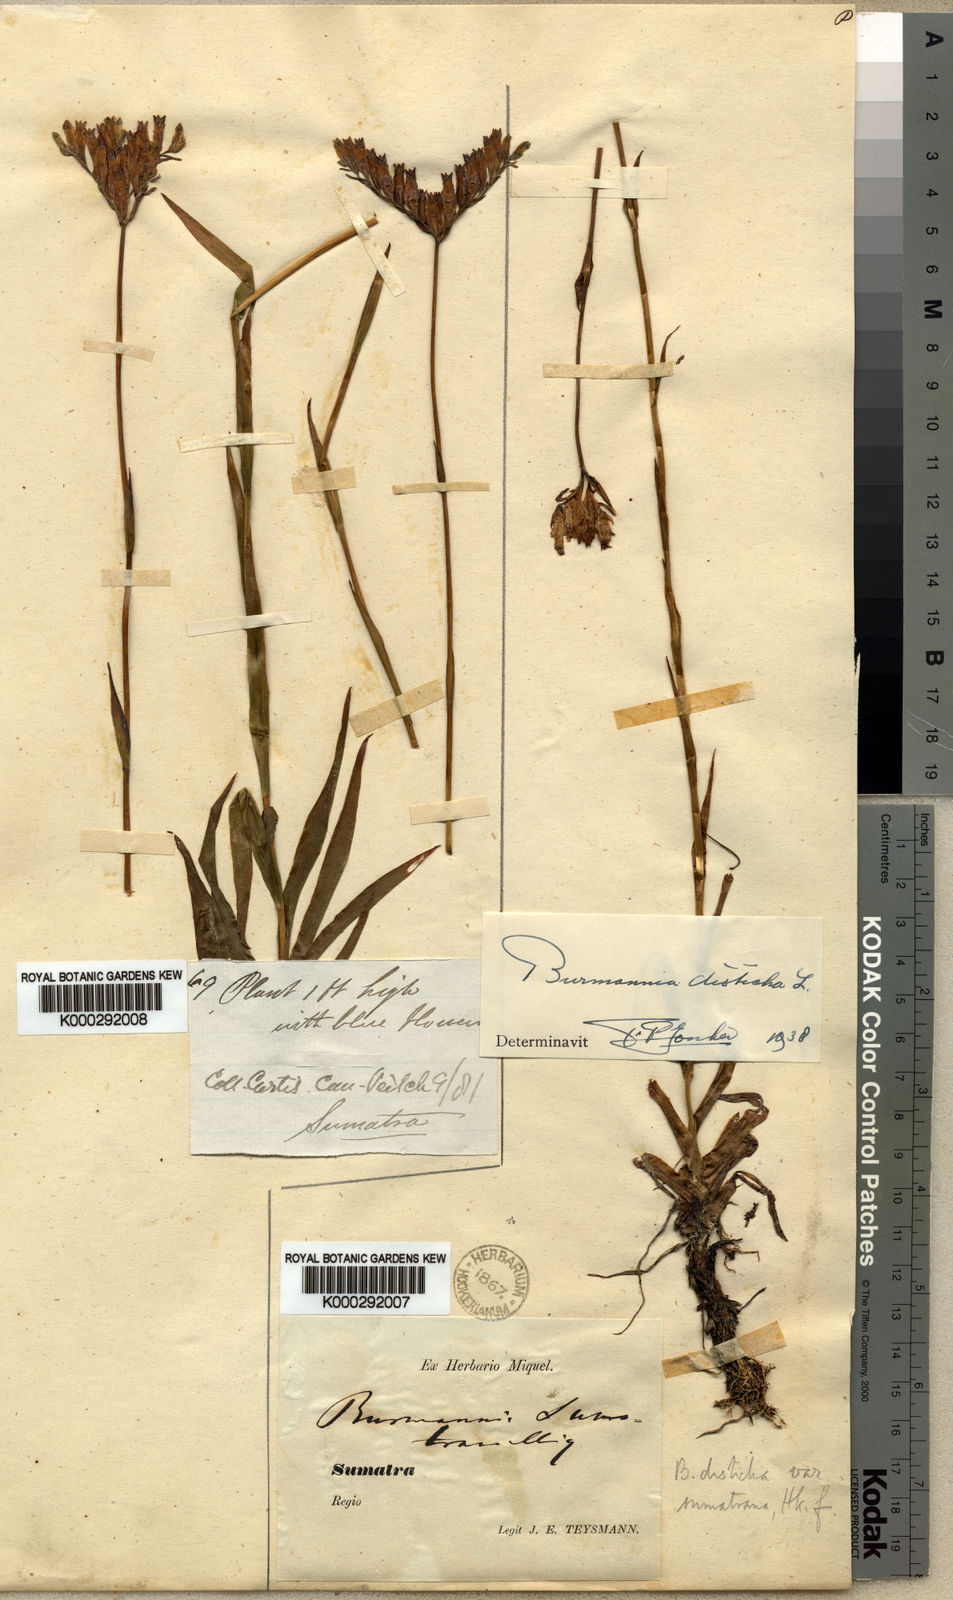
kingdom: Plantae
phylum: Tracheophyta
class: Liliopsida
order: Dioscoreales
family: Burmanniaceae
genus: Burmannia
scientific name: Burmannia disticha
